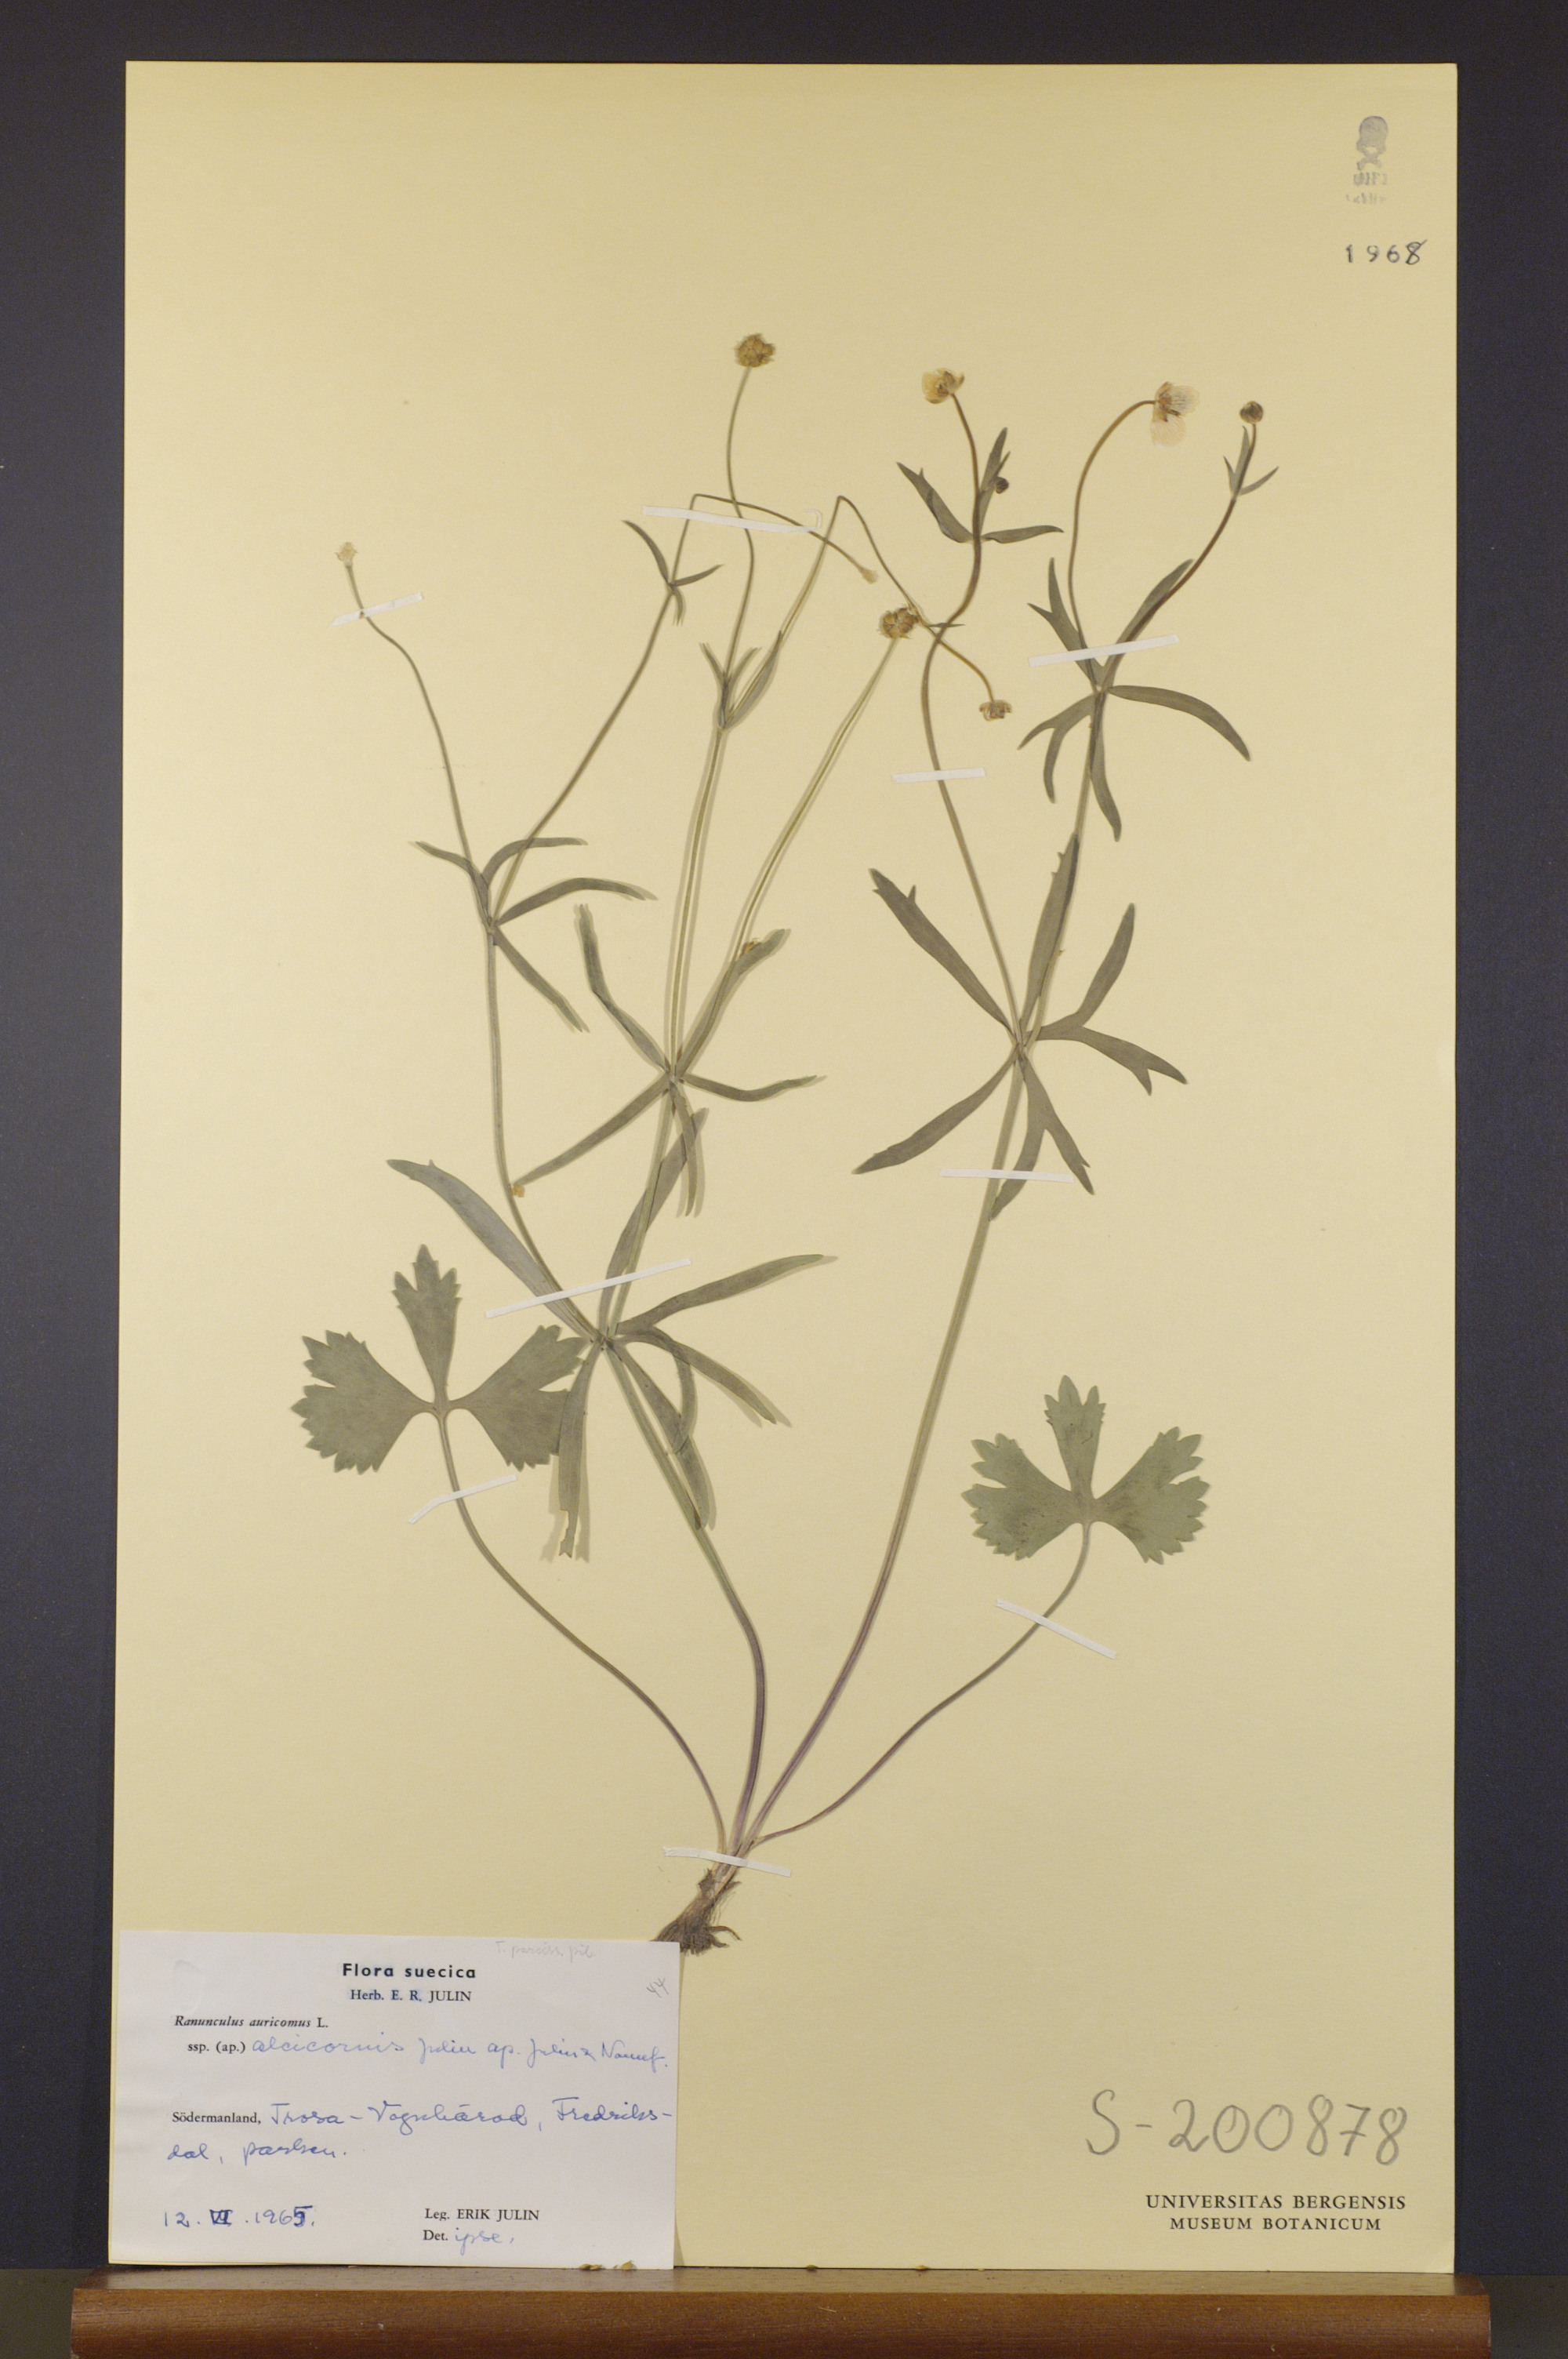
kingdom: Plantae
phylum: Tracheophyta
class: Magnoliopsida
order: Ranunculales
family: Ranunculaceae
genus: Ranunculus
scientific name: Ranunculus alcicornis
